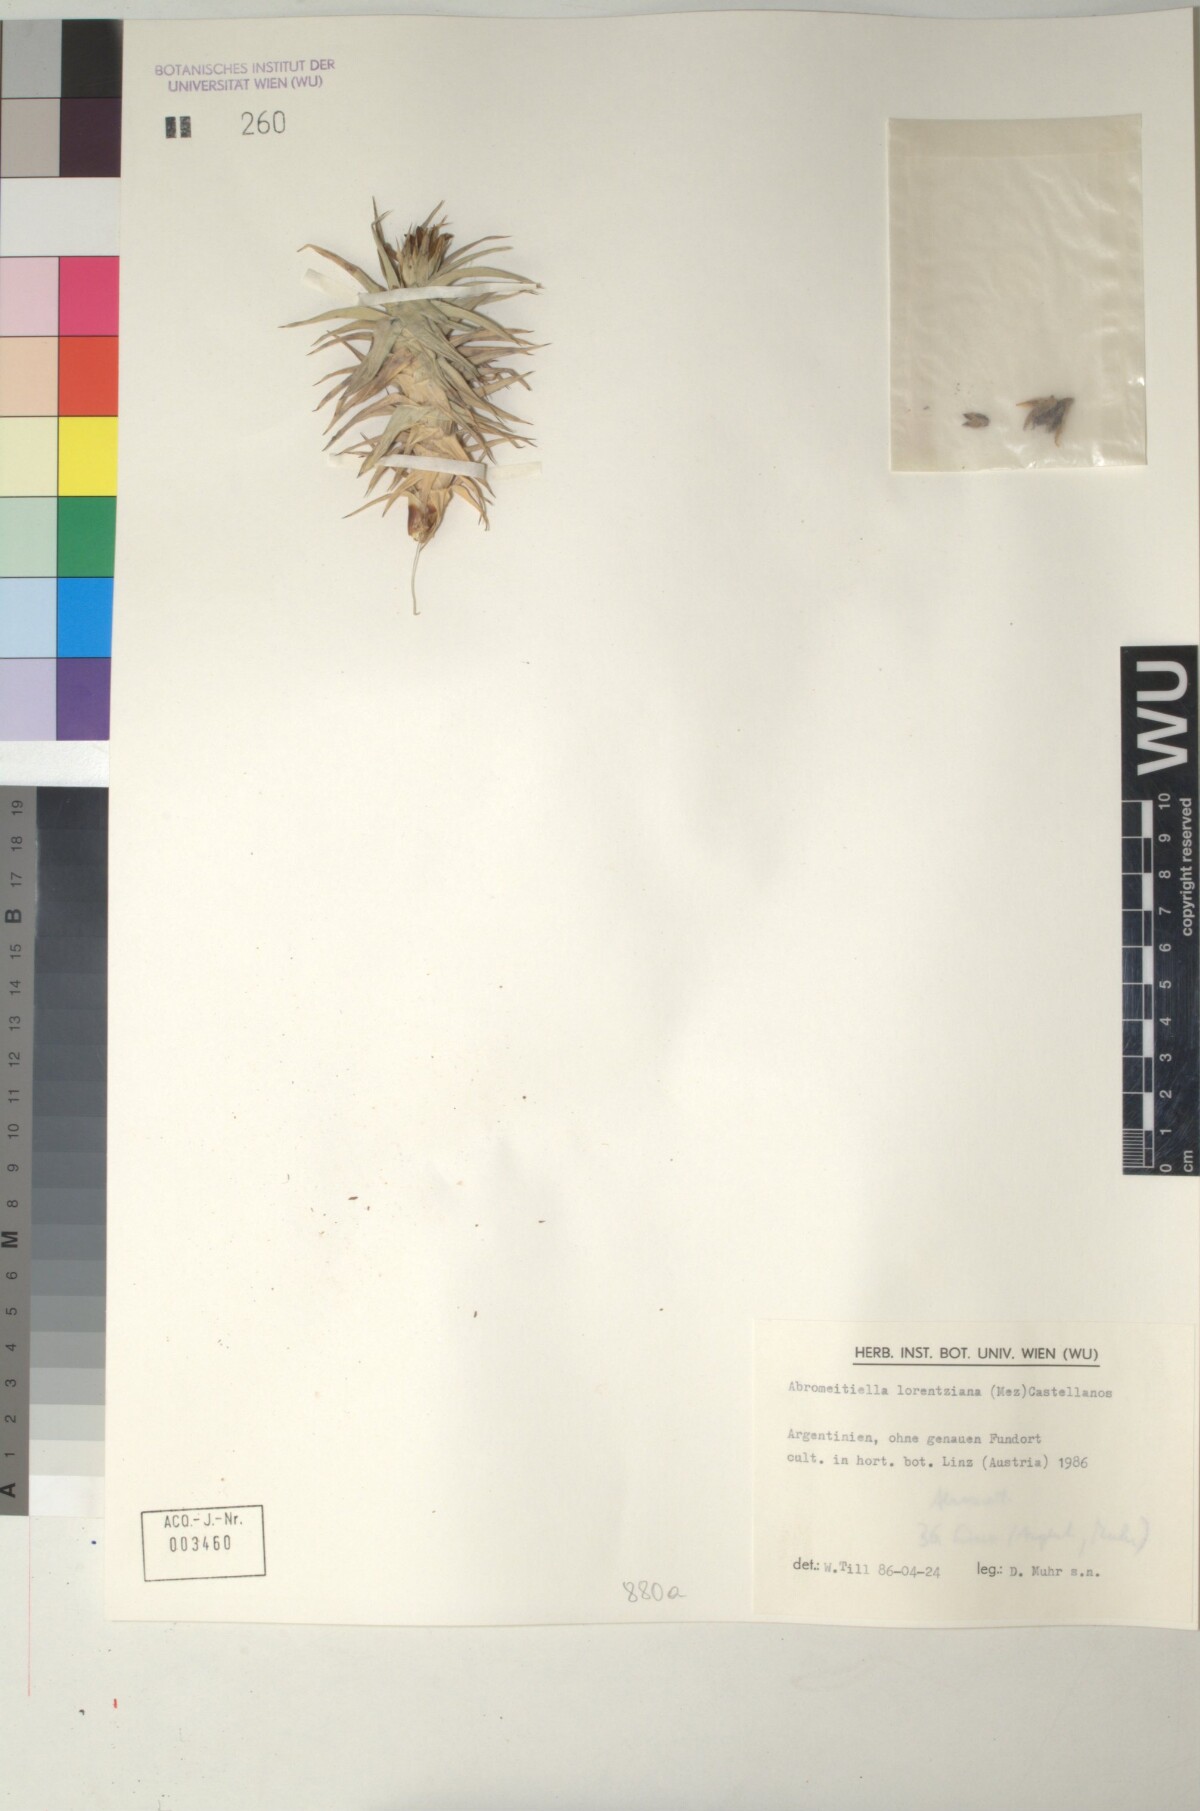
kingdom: Plantae
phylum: Tracheophyta
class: Liliopsida
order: Poales
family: Bromeliaceae
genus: Deuterocohnia
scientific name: Deuterocohnia brevifolia
